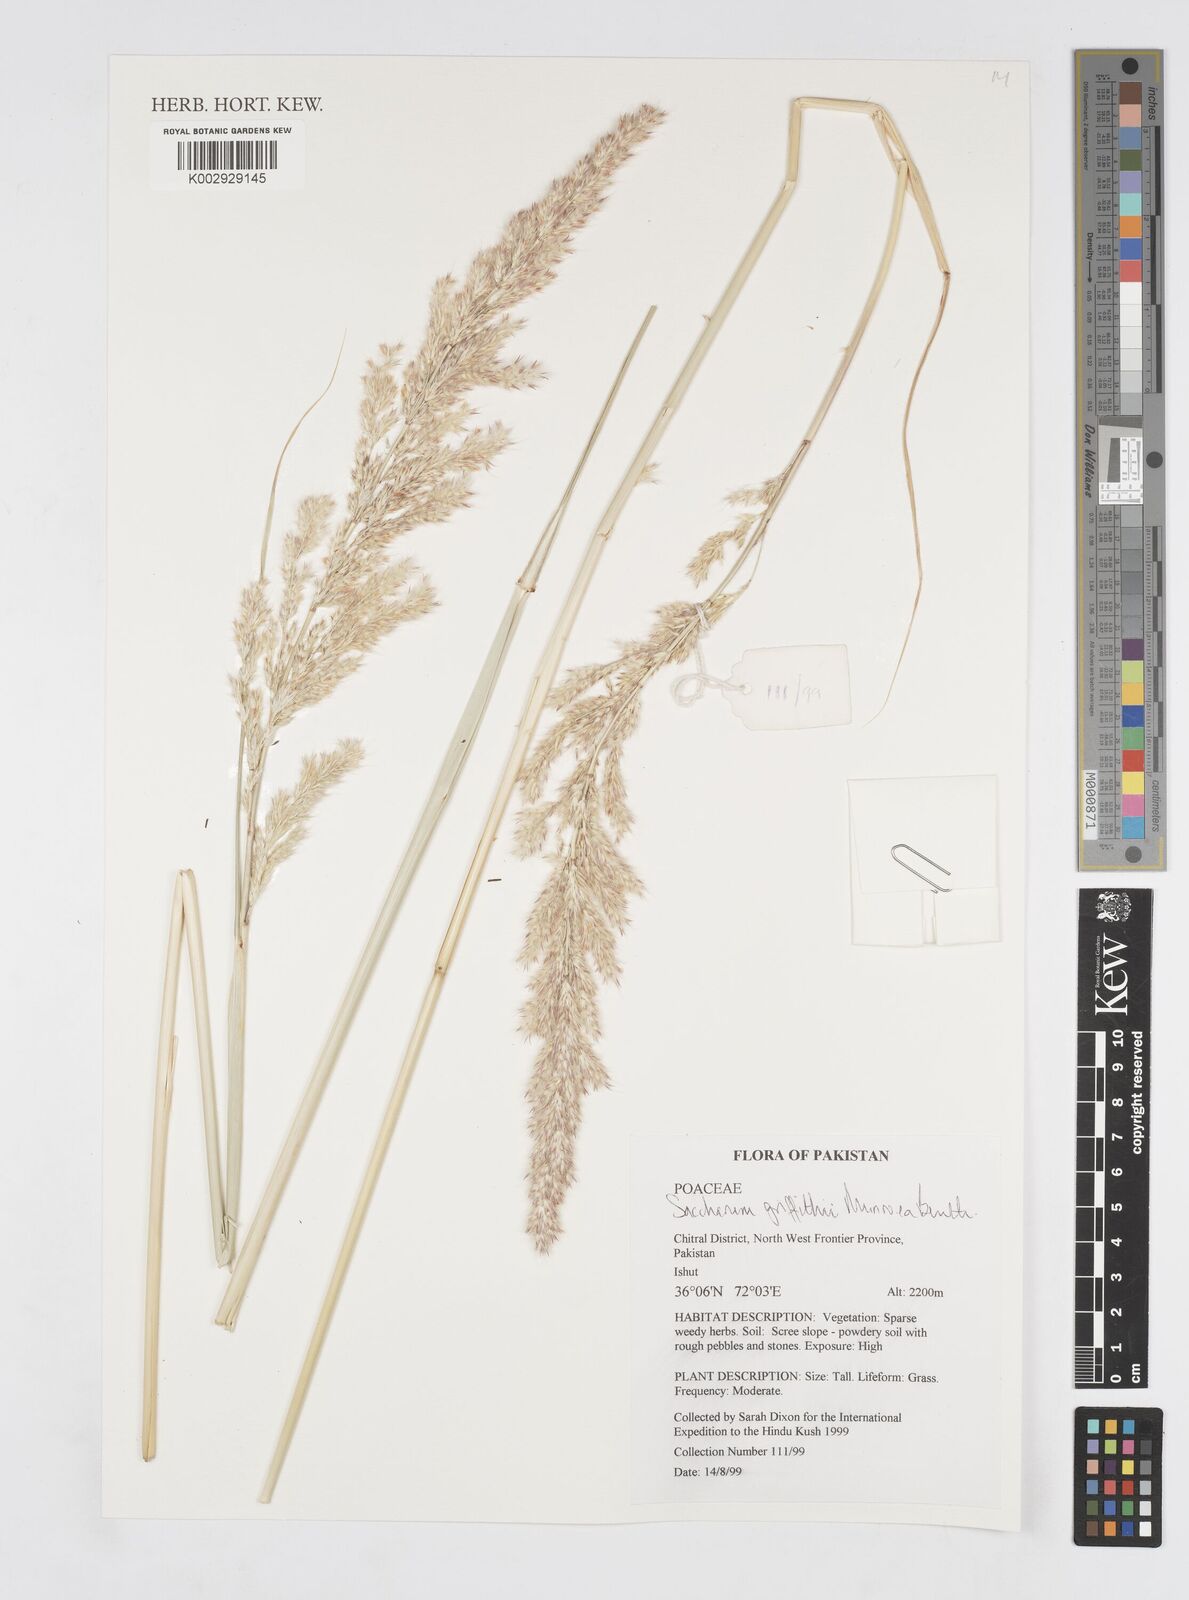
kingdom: Plantae
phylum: Tracheophyta
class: Liliopsida
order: Poales
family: Poaceae
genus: Saccharum
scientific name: Saccharum griffithii
